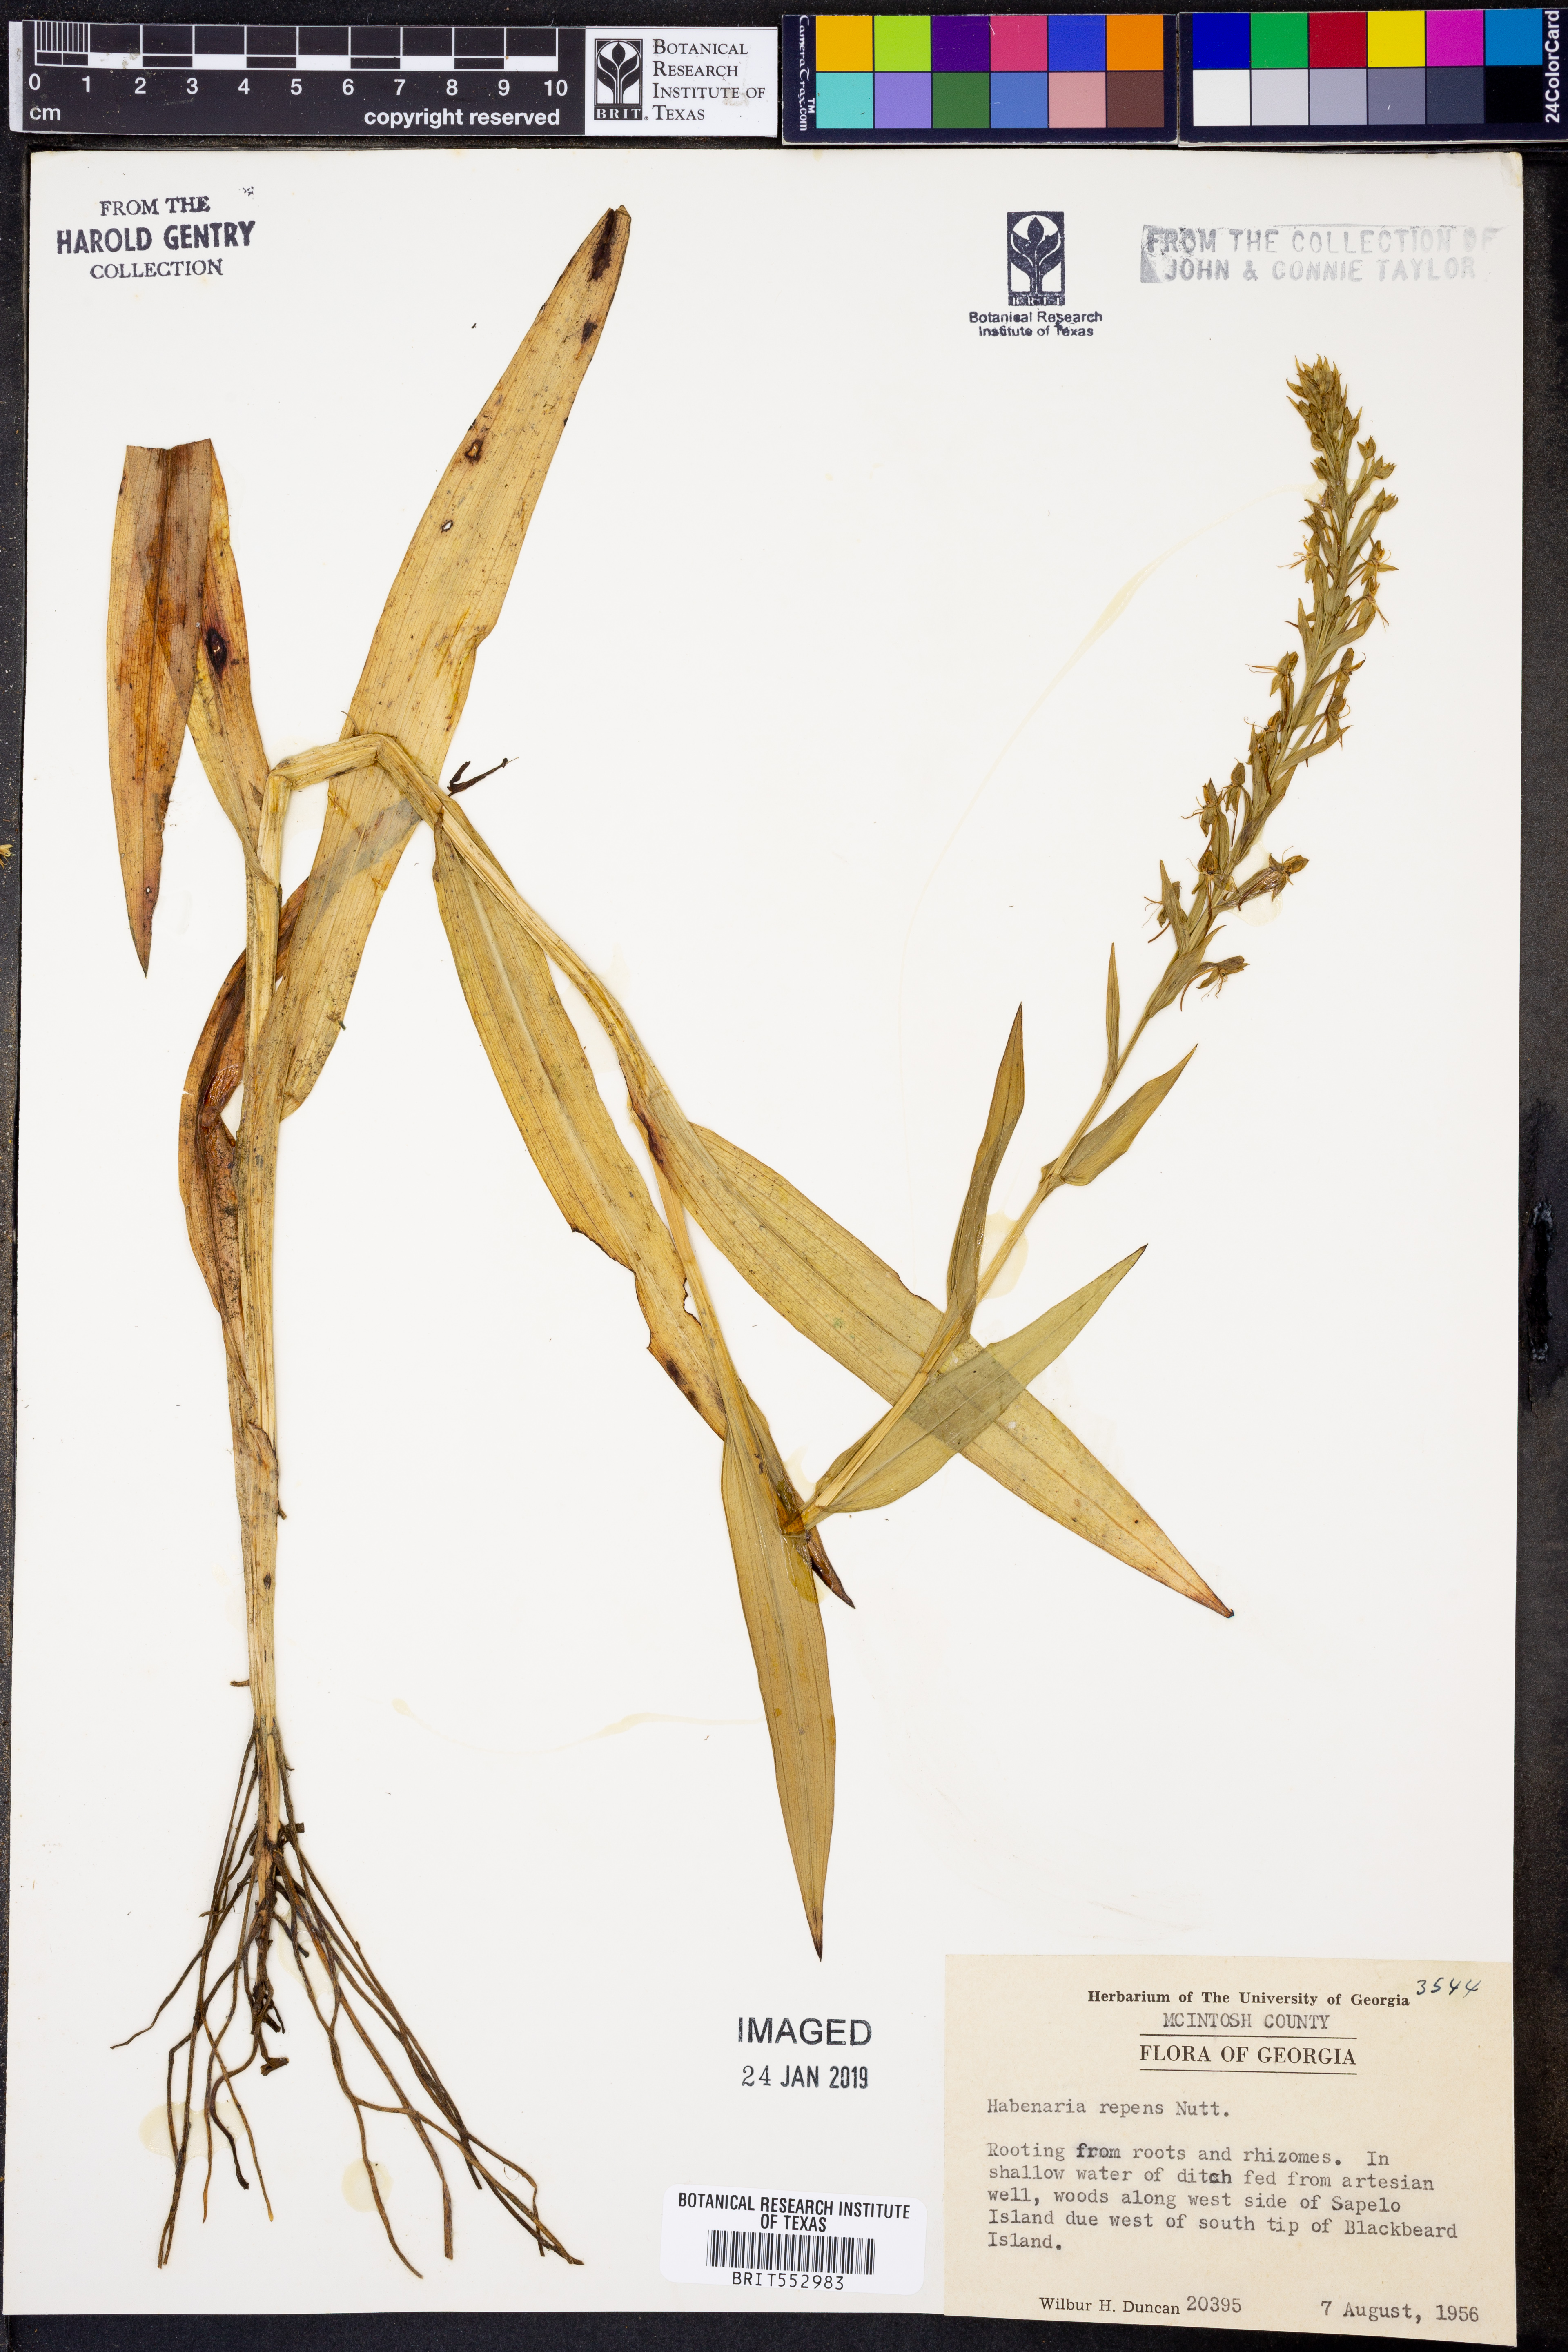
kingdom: Plantae
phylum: Tracheophyta
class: Liliopsida
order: Asparagales
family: Orchidaceae
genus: Habenaria
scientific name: Habenaria repens
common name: Water orchid
